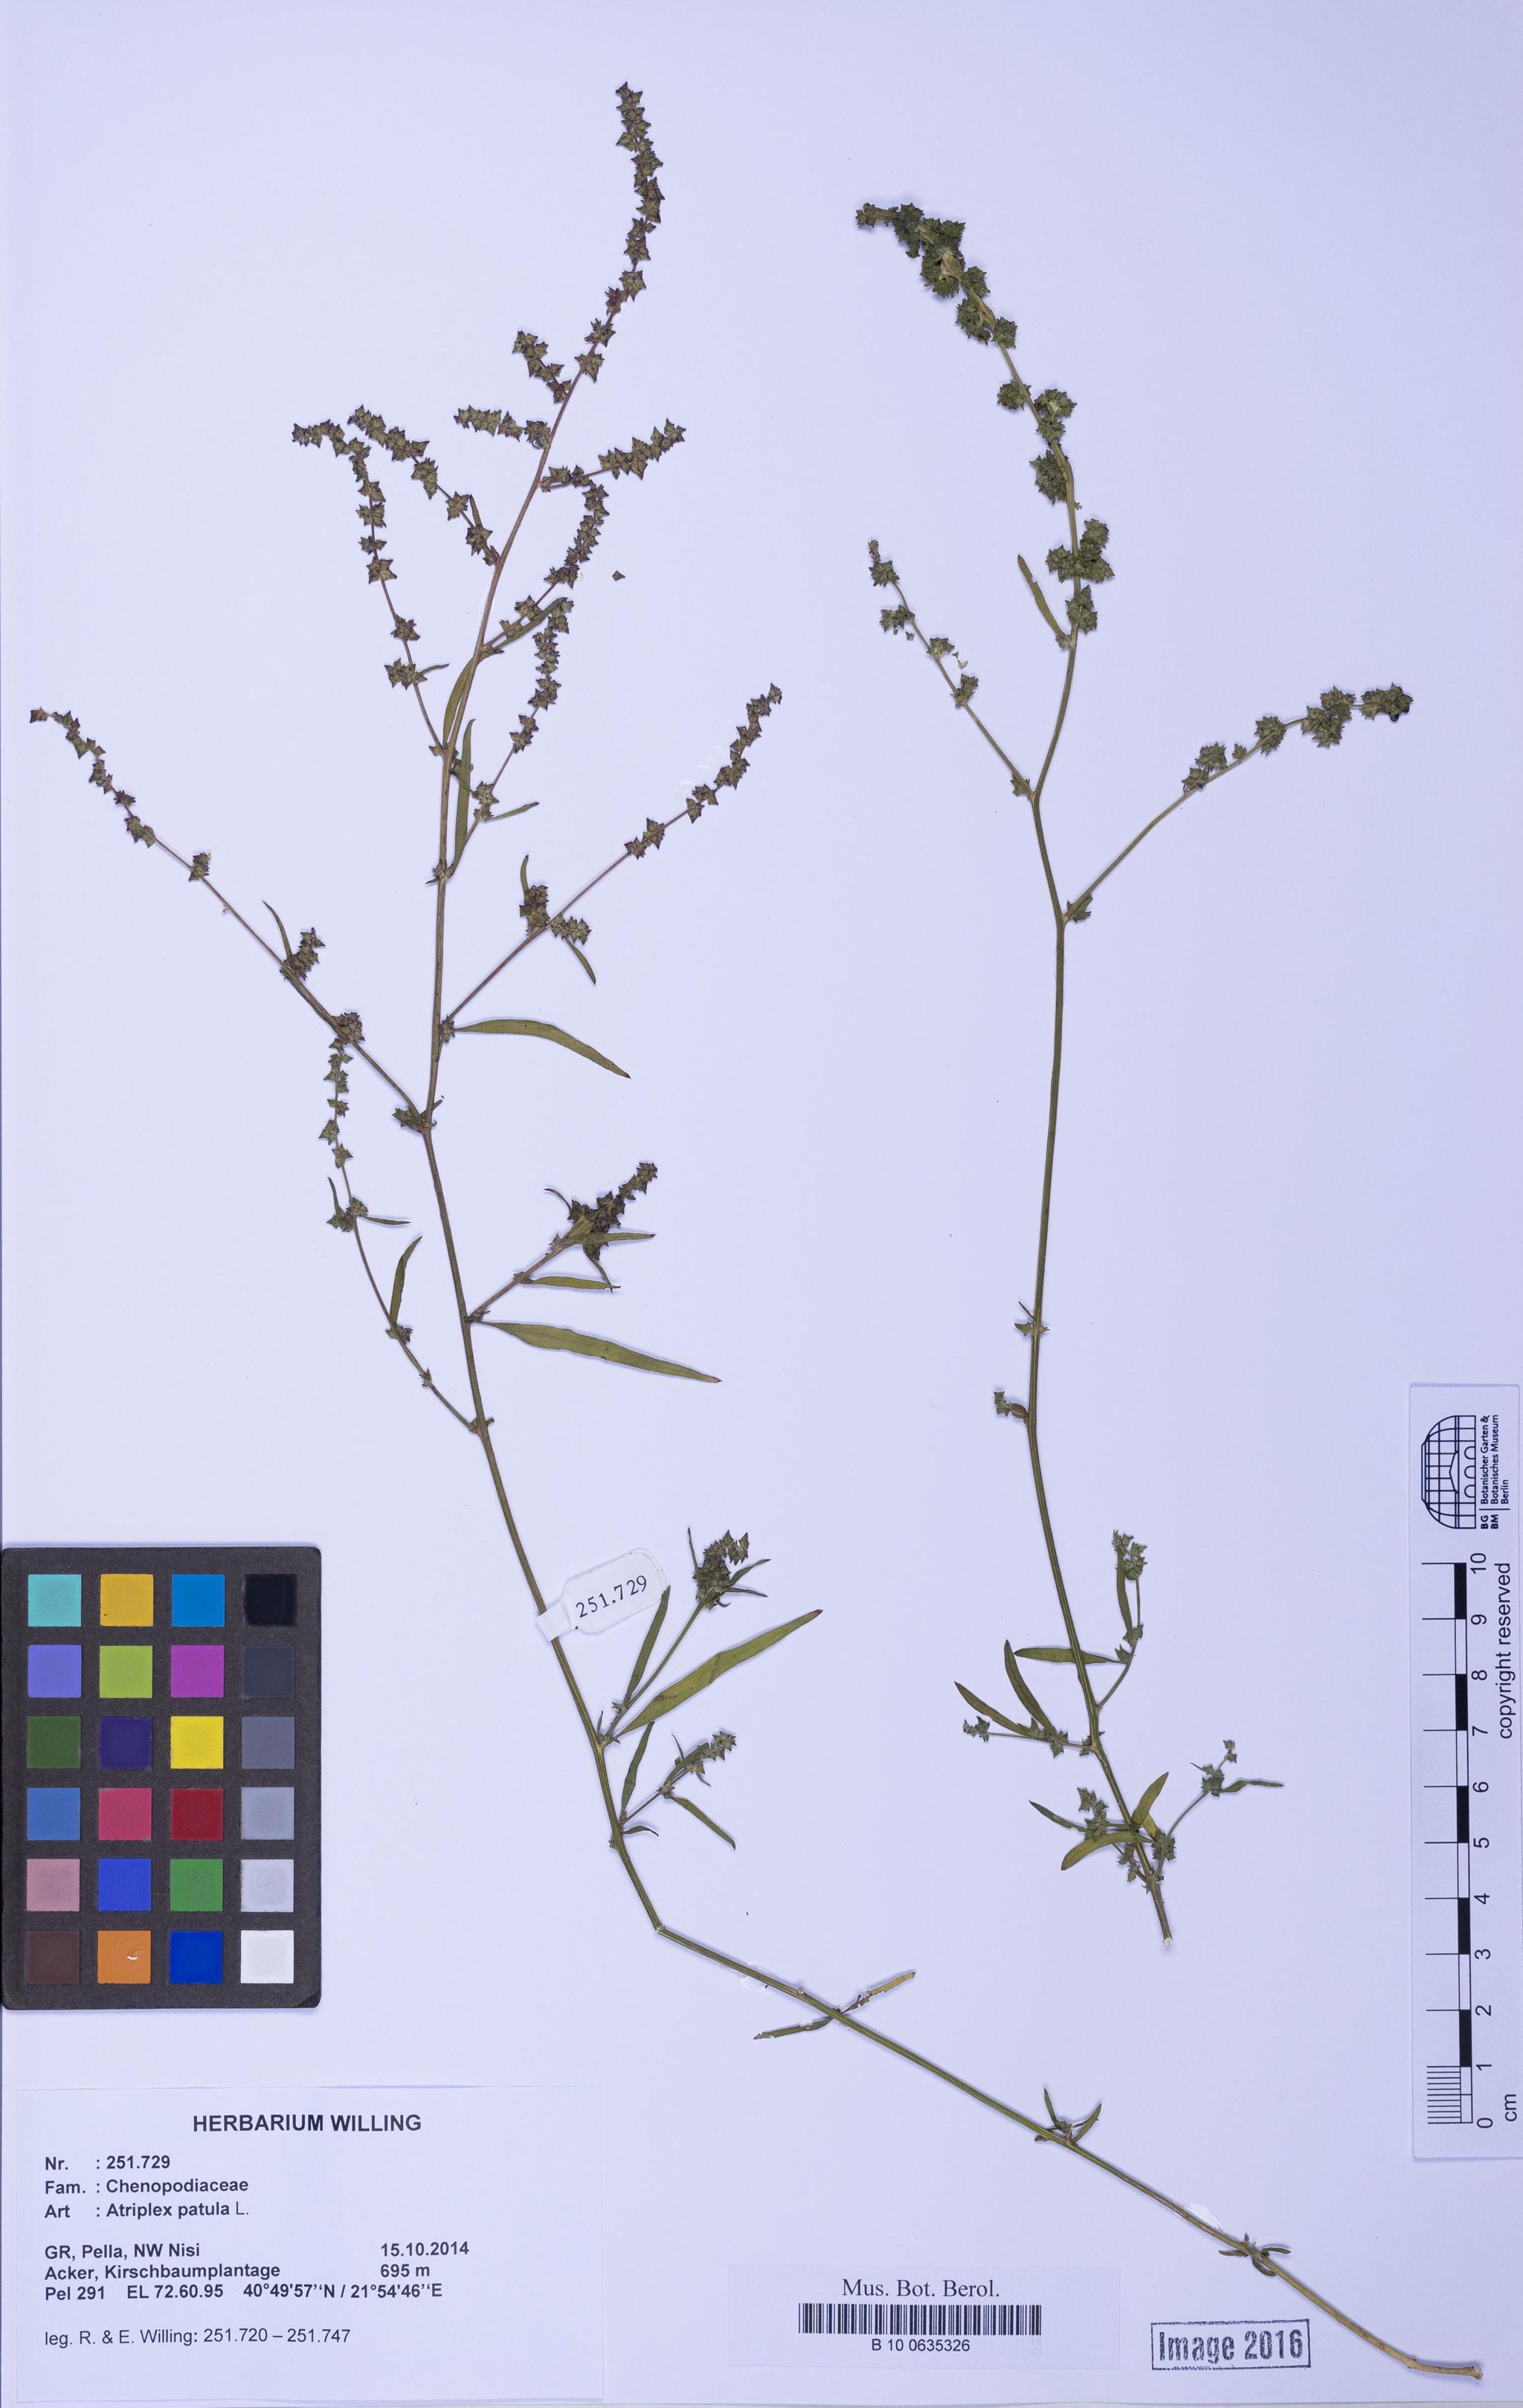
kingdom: Plantae
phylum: Tracheophyta
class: Magnoliopsida
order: Caryophyllales
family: Amaranthaceae
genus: Atriplex
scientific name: Atriplex patula
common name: Common orache
